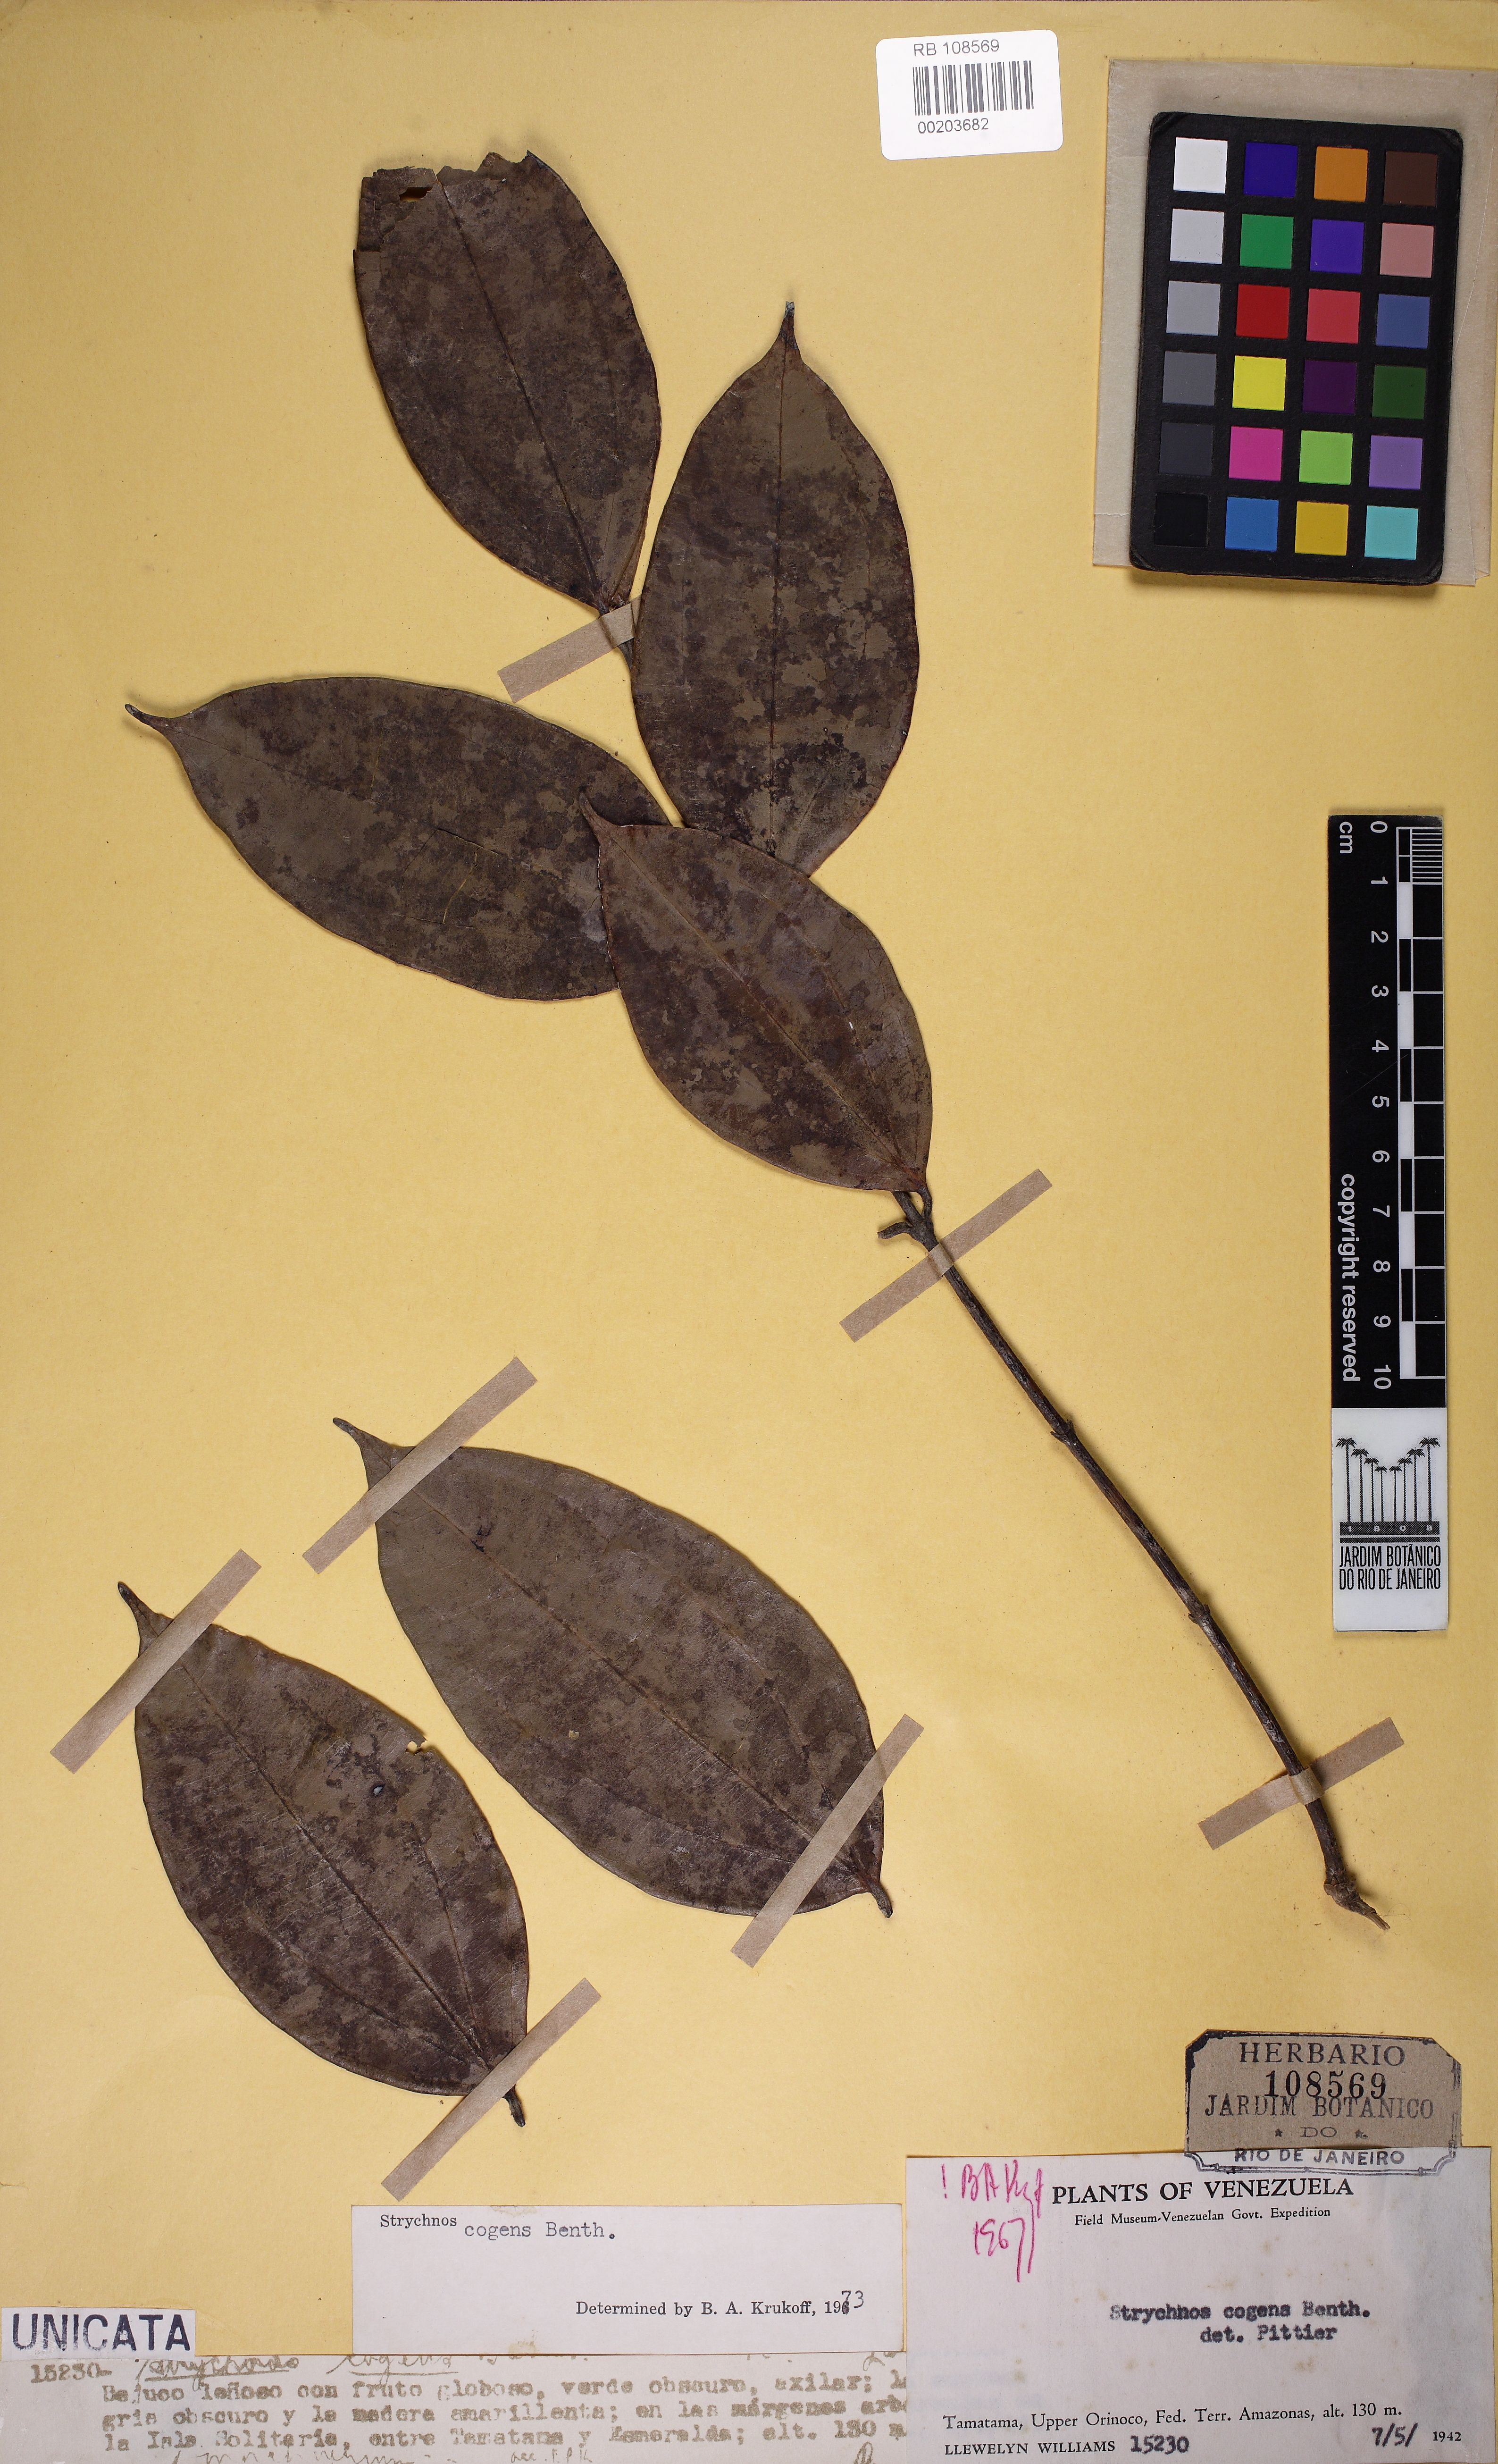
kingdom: Plantae
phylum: Tracheophyta
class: Magnoliopsida
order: Gentianales
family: Loganiaceae
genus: Strychnos
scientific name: Strychnos cogens
